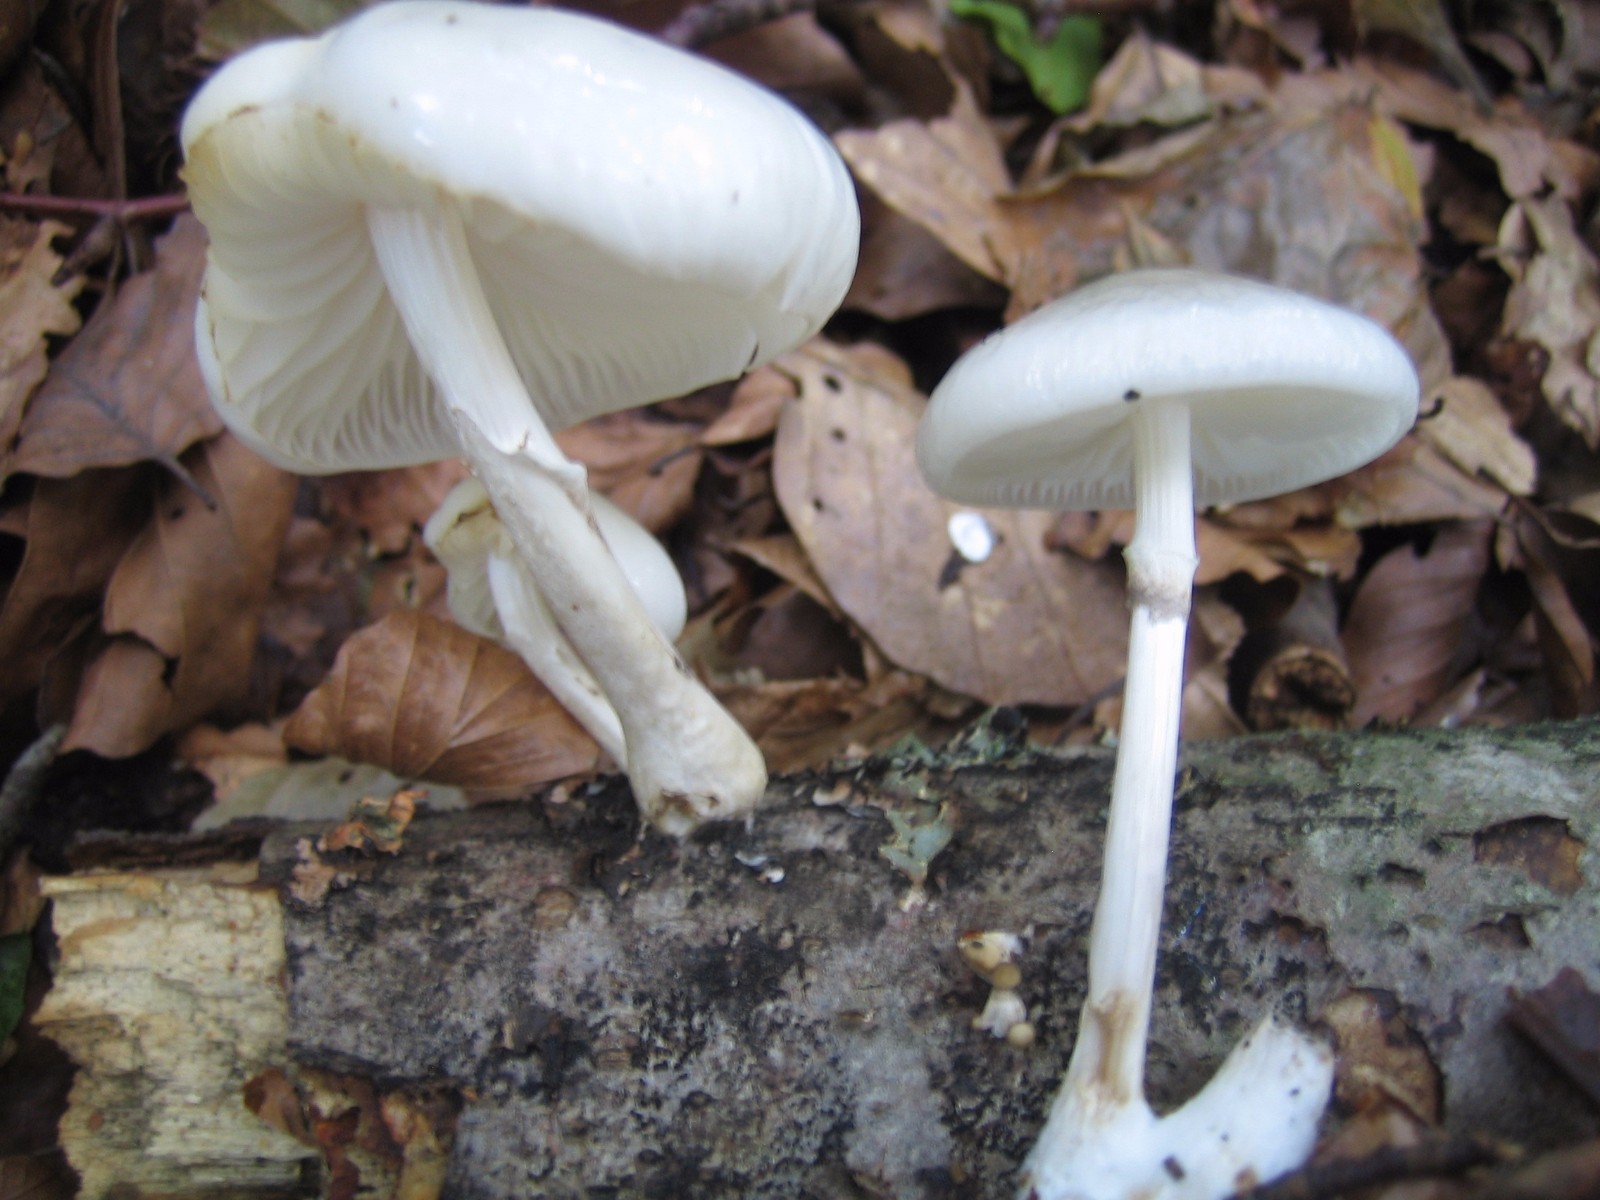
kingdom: Fungi
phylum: Basidiomycota
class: Agaricomycetes
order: Agaricales
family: Physalacriaceae
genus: Mucidula
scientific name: Mucidula mucida
